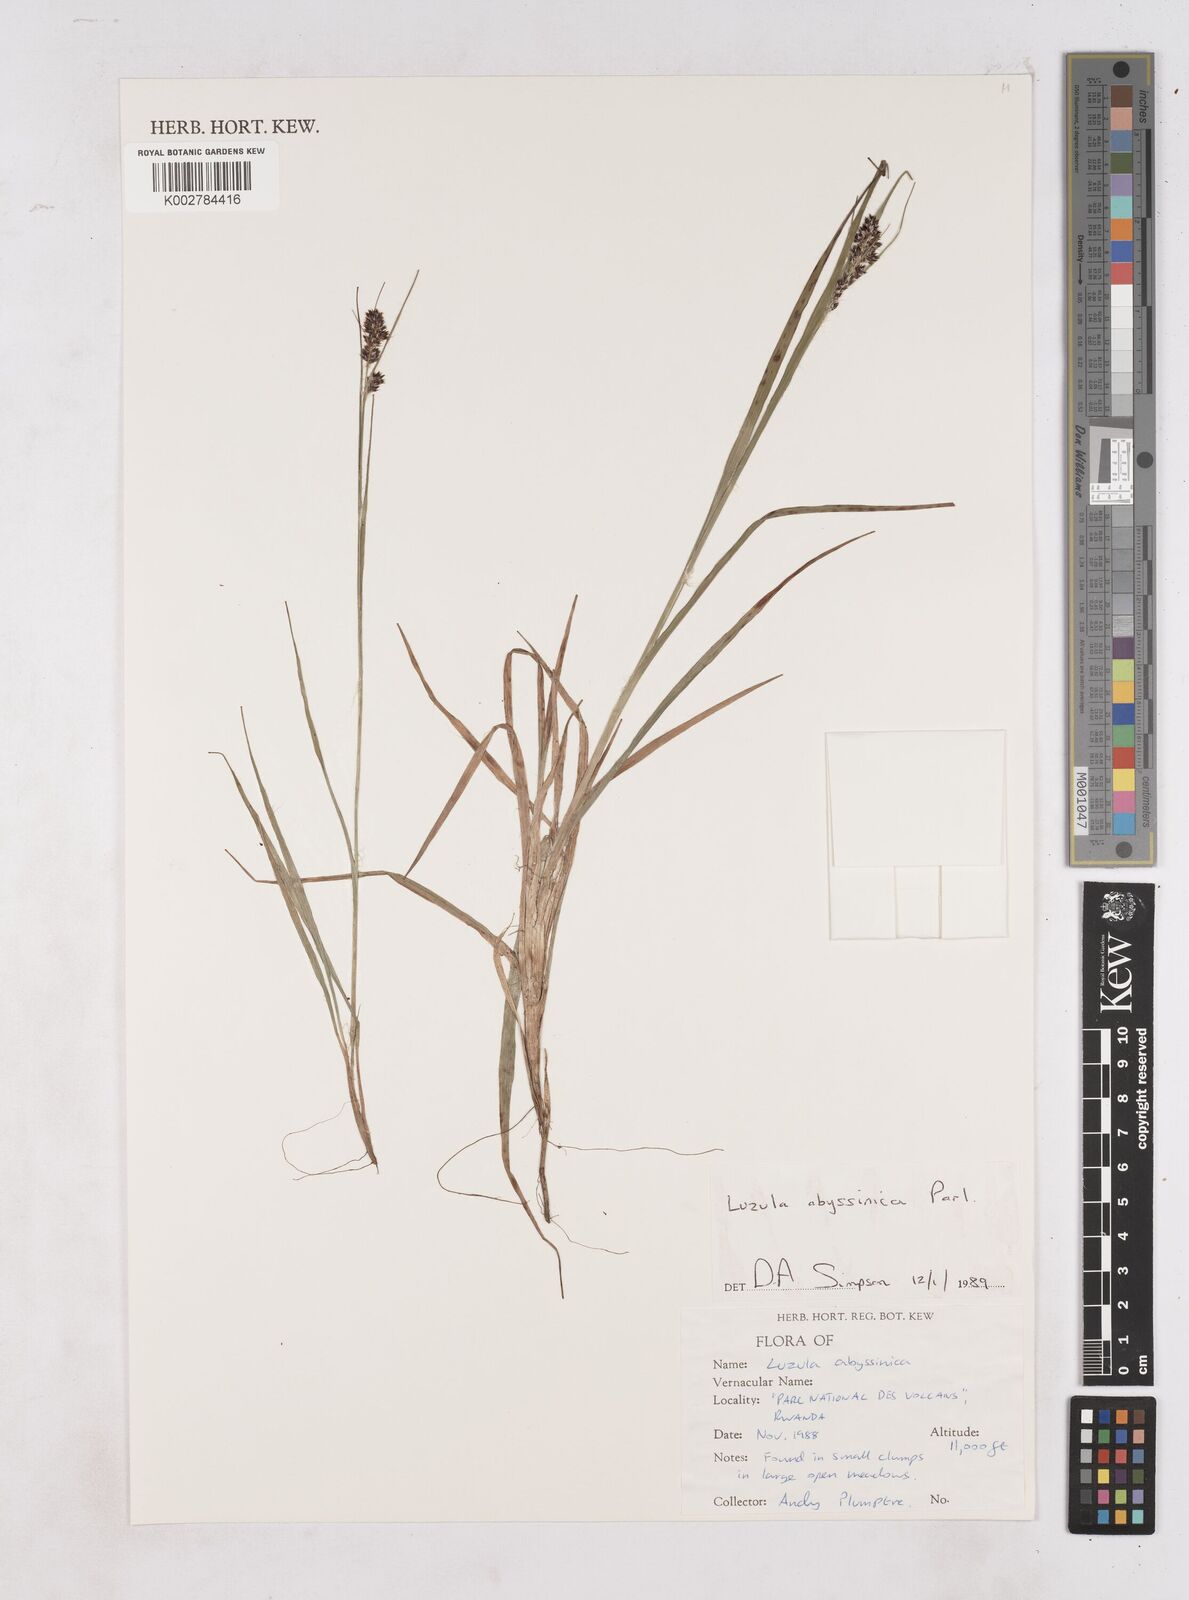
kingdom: Plantae
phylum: Tracheophyta
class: Liliopsida
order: Poales
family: Juncaceae
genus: Luzula
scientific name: Luzula abyssinica
